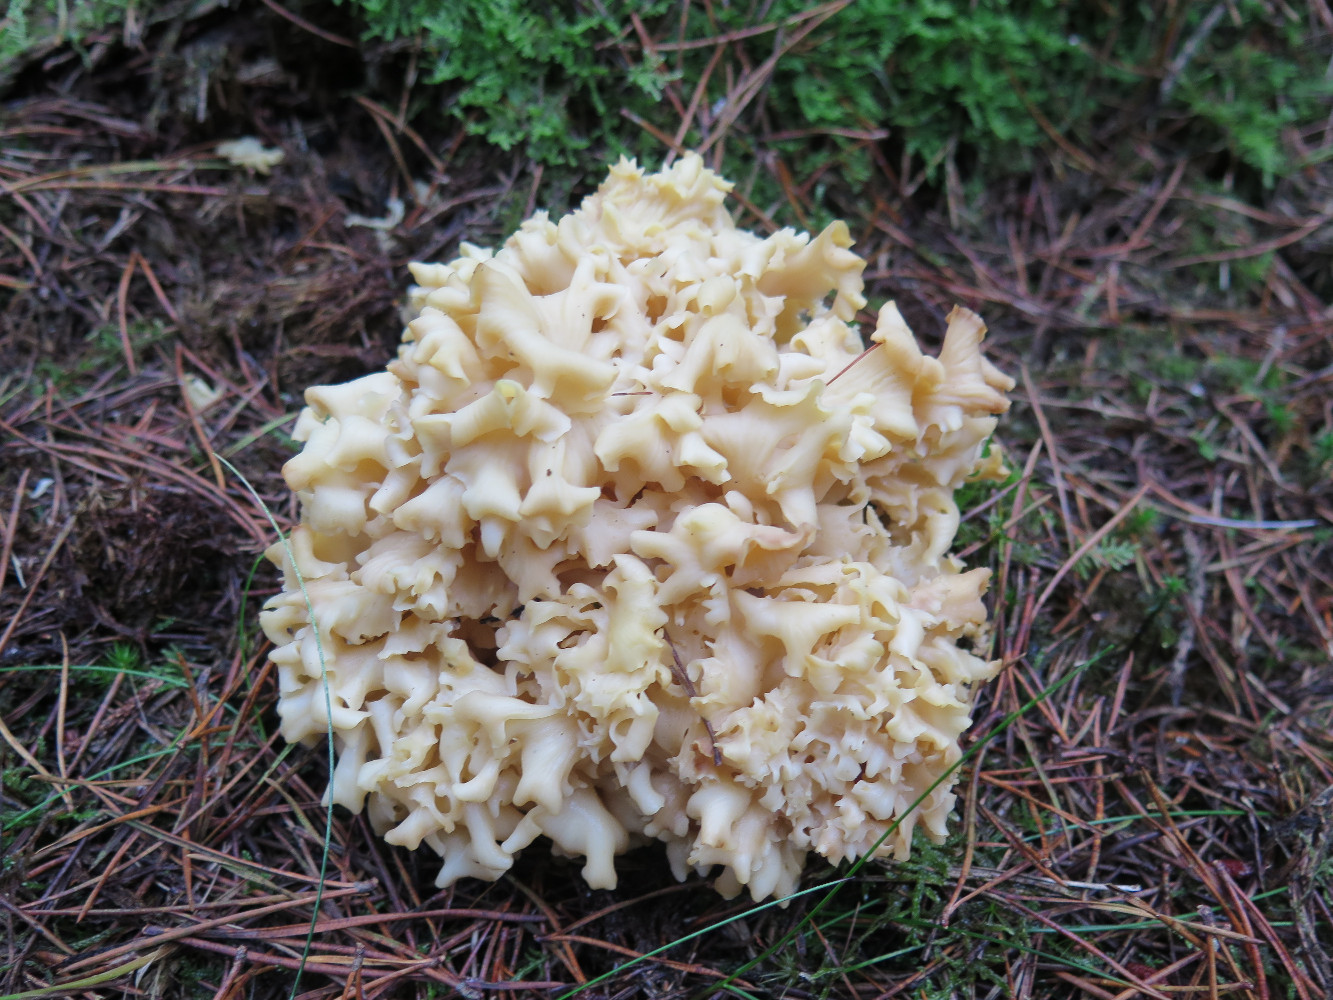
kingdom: Fungi
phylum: Basidiomycota
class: Agaricomycetes
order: Polyporales
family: Sparassidaceae
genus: Sparassis
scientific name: Sparassis crispa
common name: kruset blomkålssvamp
